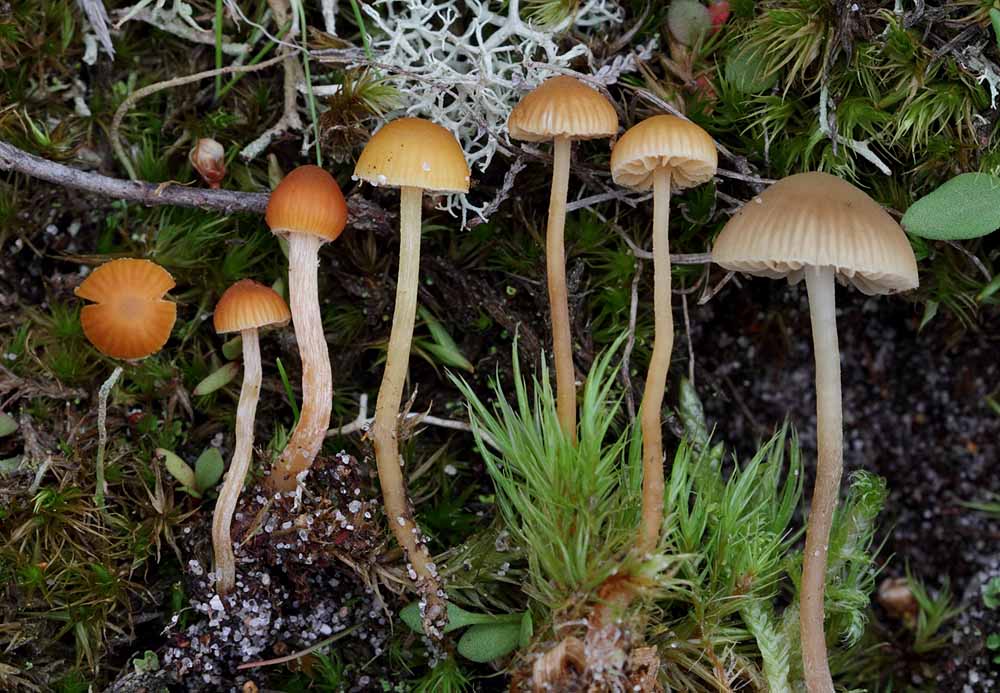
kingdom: Fungi
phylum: Basidiomycota
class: Agaricomycetes
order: Agaricales
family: Hymenogastraceae
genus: Galerina
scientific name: Galerina mniophila
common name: olivengul hjelmhat
